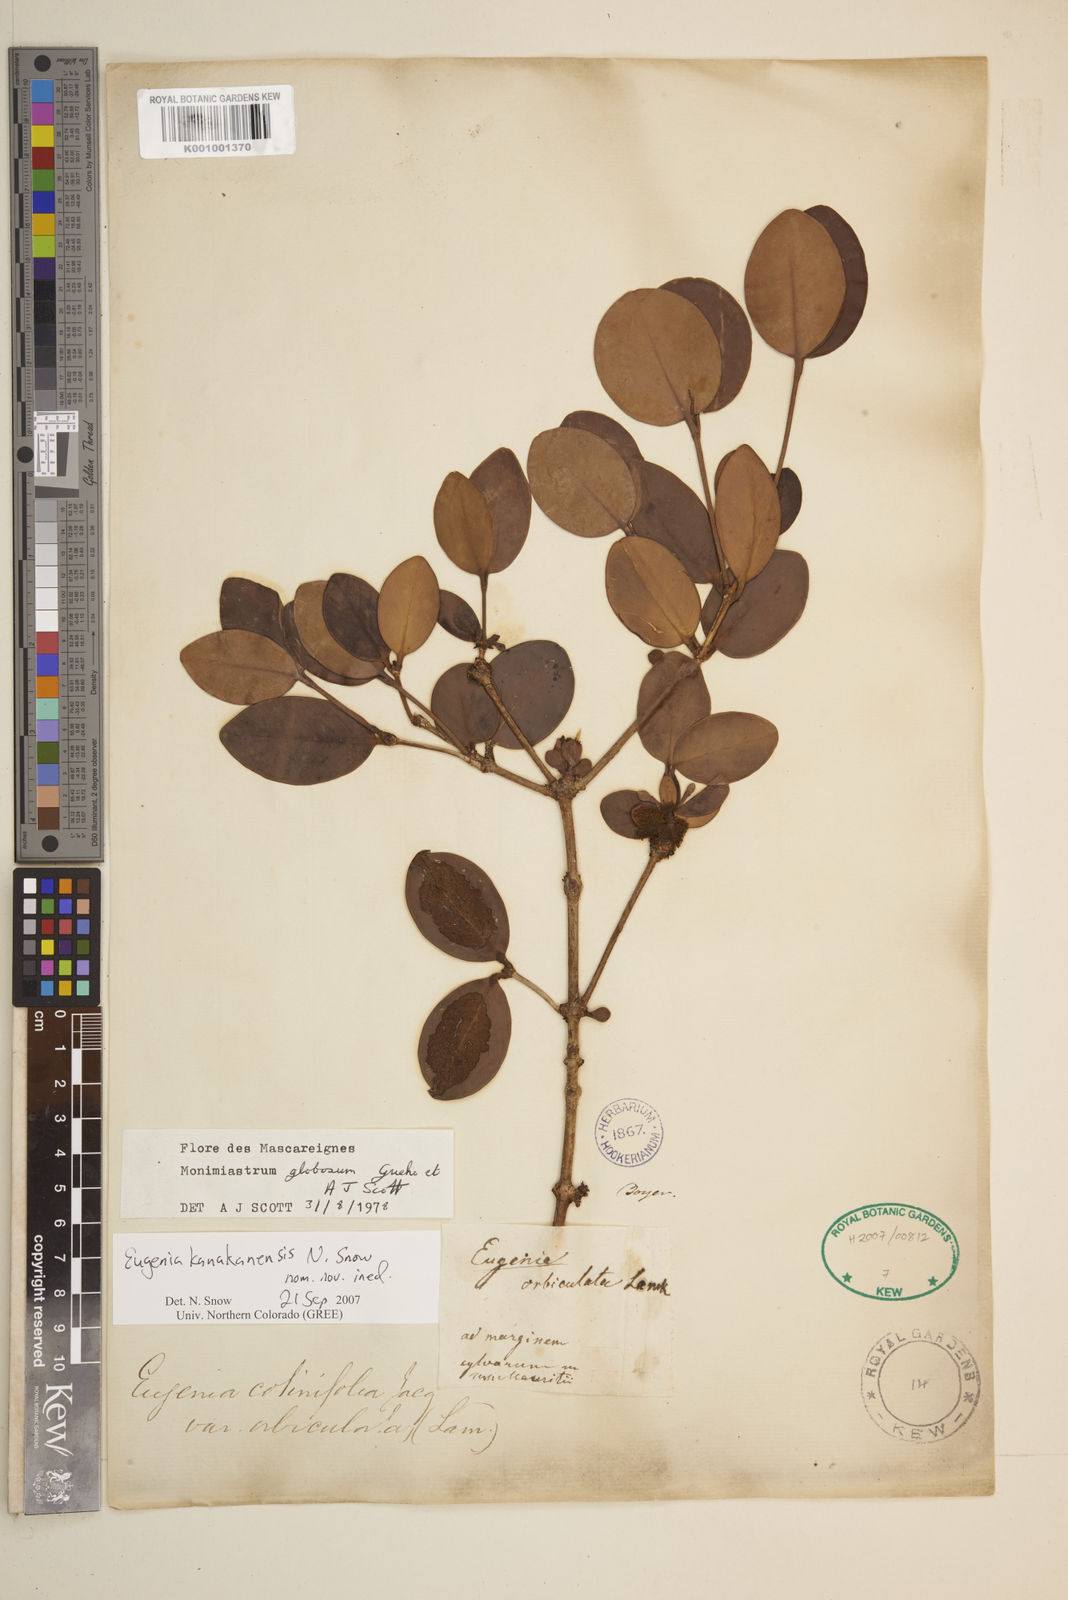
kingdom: Plantae
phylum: Tracheophyta
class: Magnoliopsida
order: Myrtales
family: Myrtaceae
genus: Eugenia
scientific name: Eugenia kanakana
